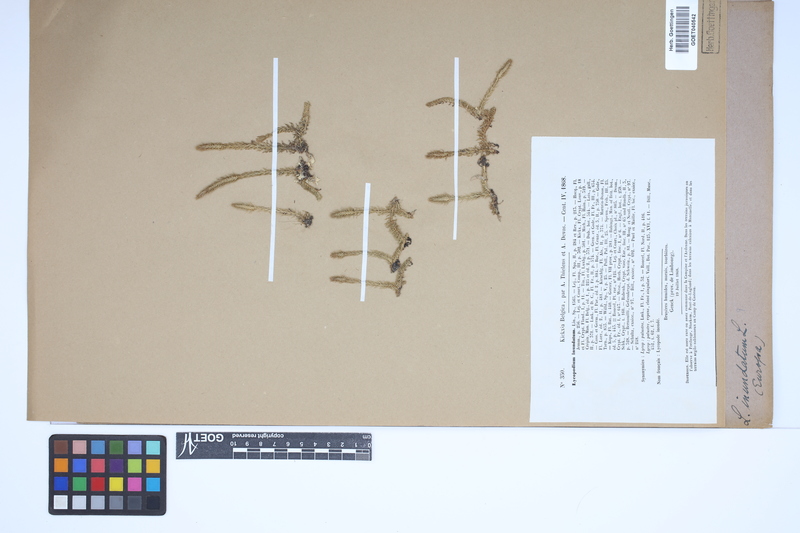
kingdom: Plantae
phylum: Tracheophyta
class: Lycopodiopsida
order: Lycopodiales
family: Lycopodiaceae
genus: Lycopodiella
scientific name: Lycopodiella inundata
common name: Marsh clubmoss
